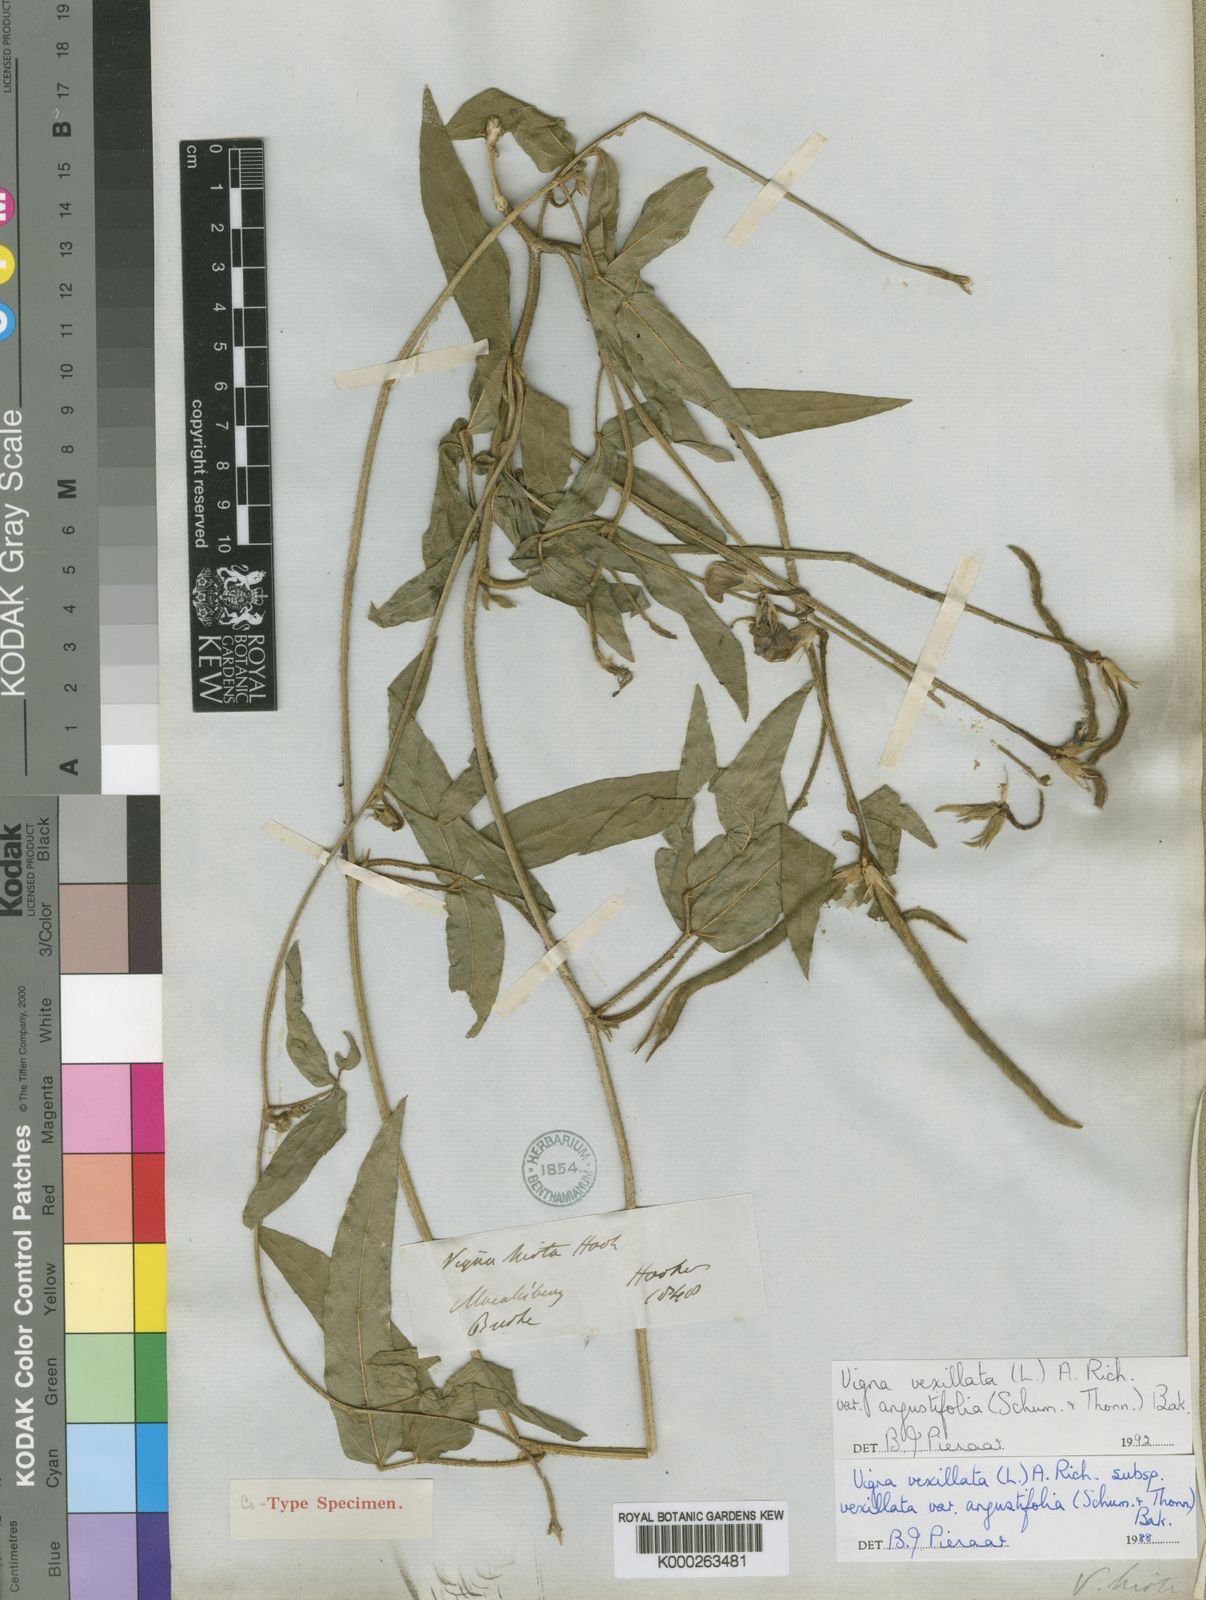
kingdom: Plantae
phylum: Tracheophyta
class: Magnoliopsida
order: Fabales
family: Fabaceae
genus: Vigna
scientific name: Vigna vexillata
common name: Zombi pea
